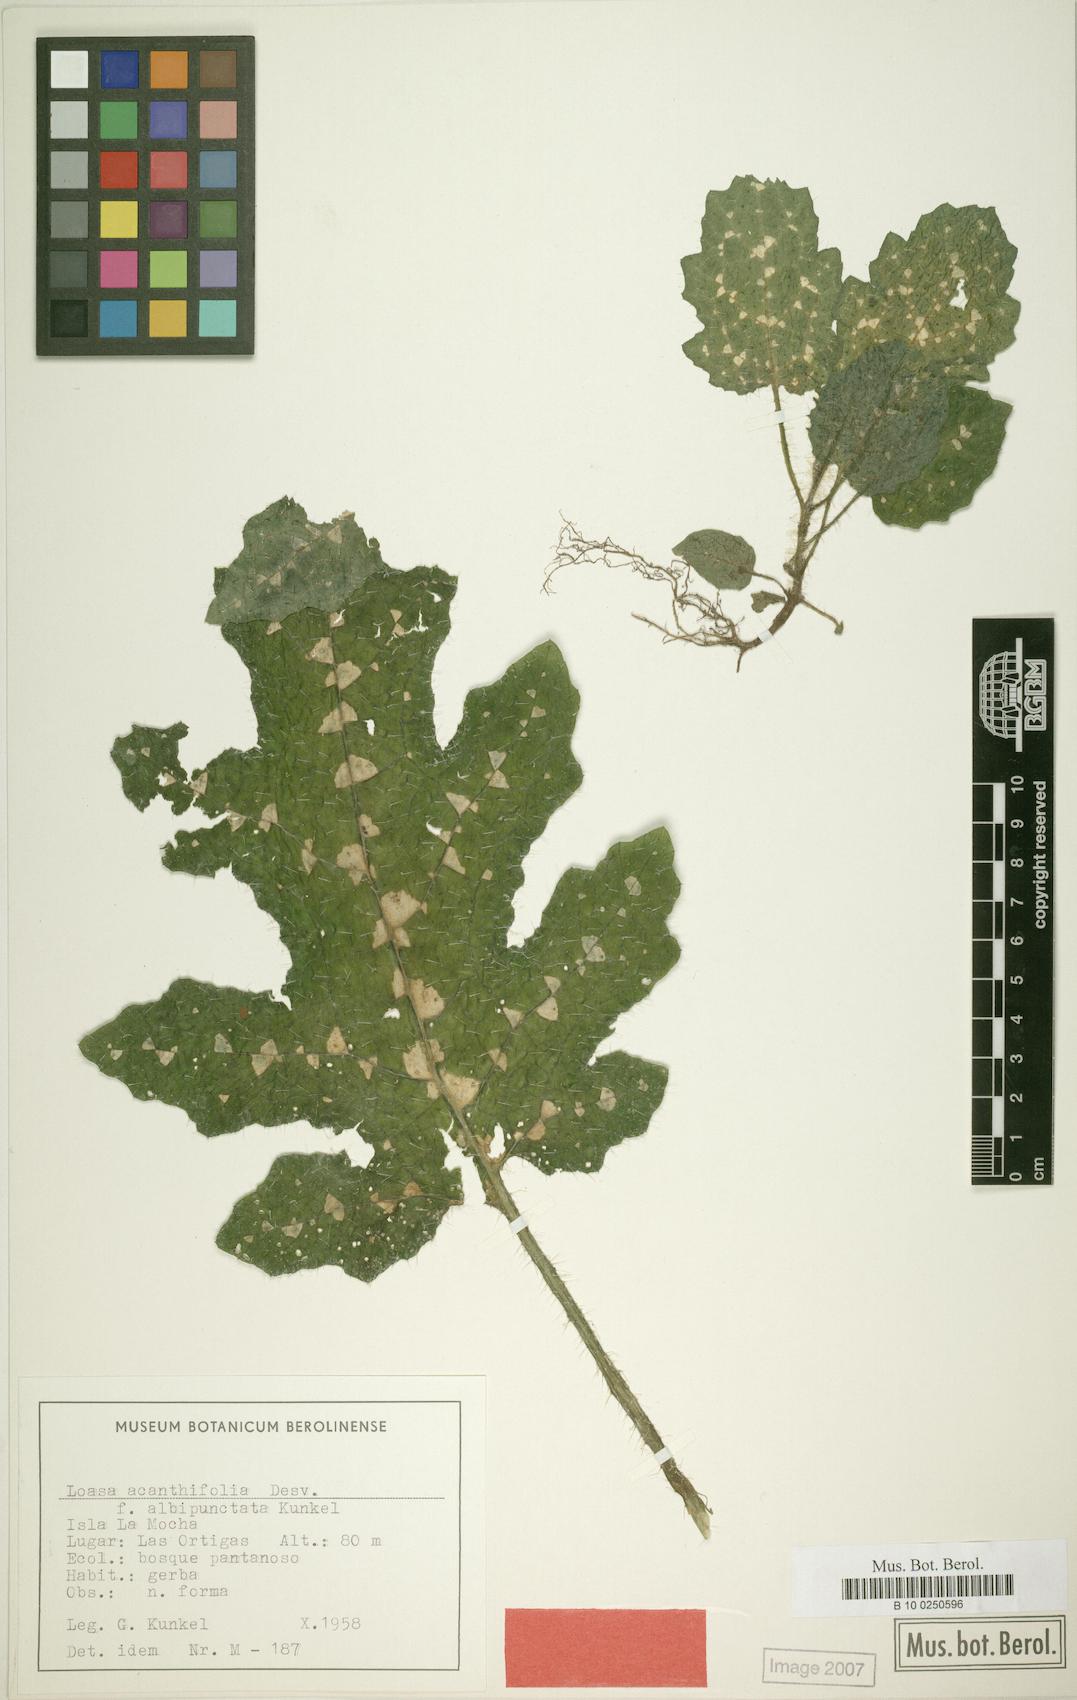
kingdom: Plantae
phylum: Tracheophyta
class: Magnoliopsida
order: Cornales
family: Loasaceae
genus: Loasa
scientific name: Loasa acanthifolia
